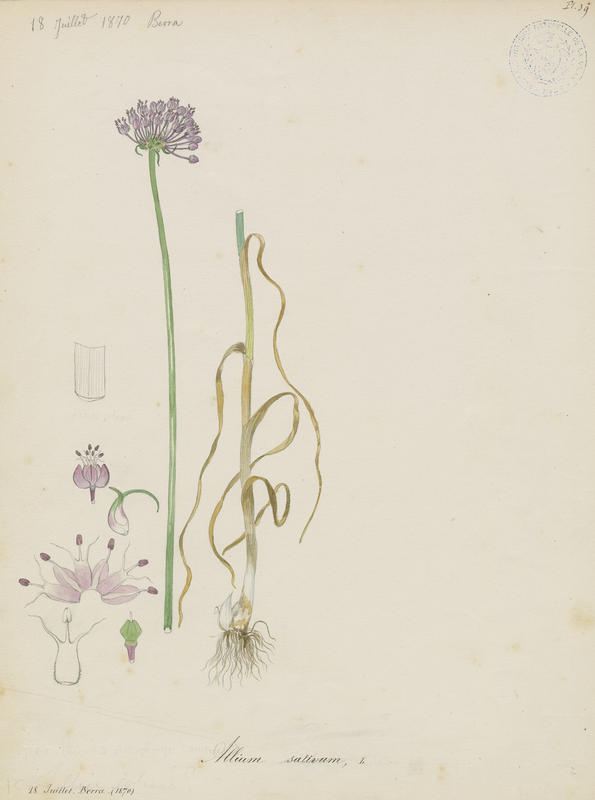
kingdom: Plantae
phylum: Tracheophyta
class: Liliopsida
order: Asparagales
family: Amaryllidaceae
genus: Allium
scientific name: Allium sativum
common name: Garlic
